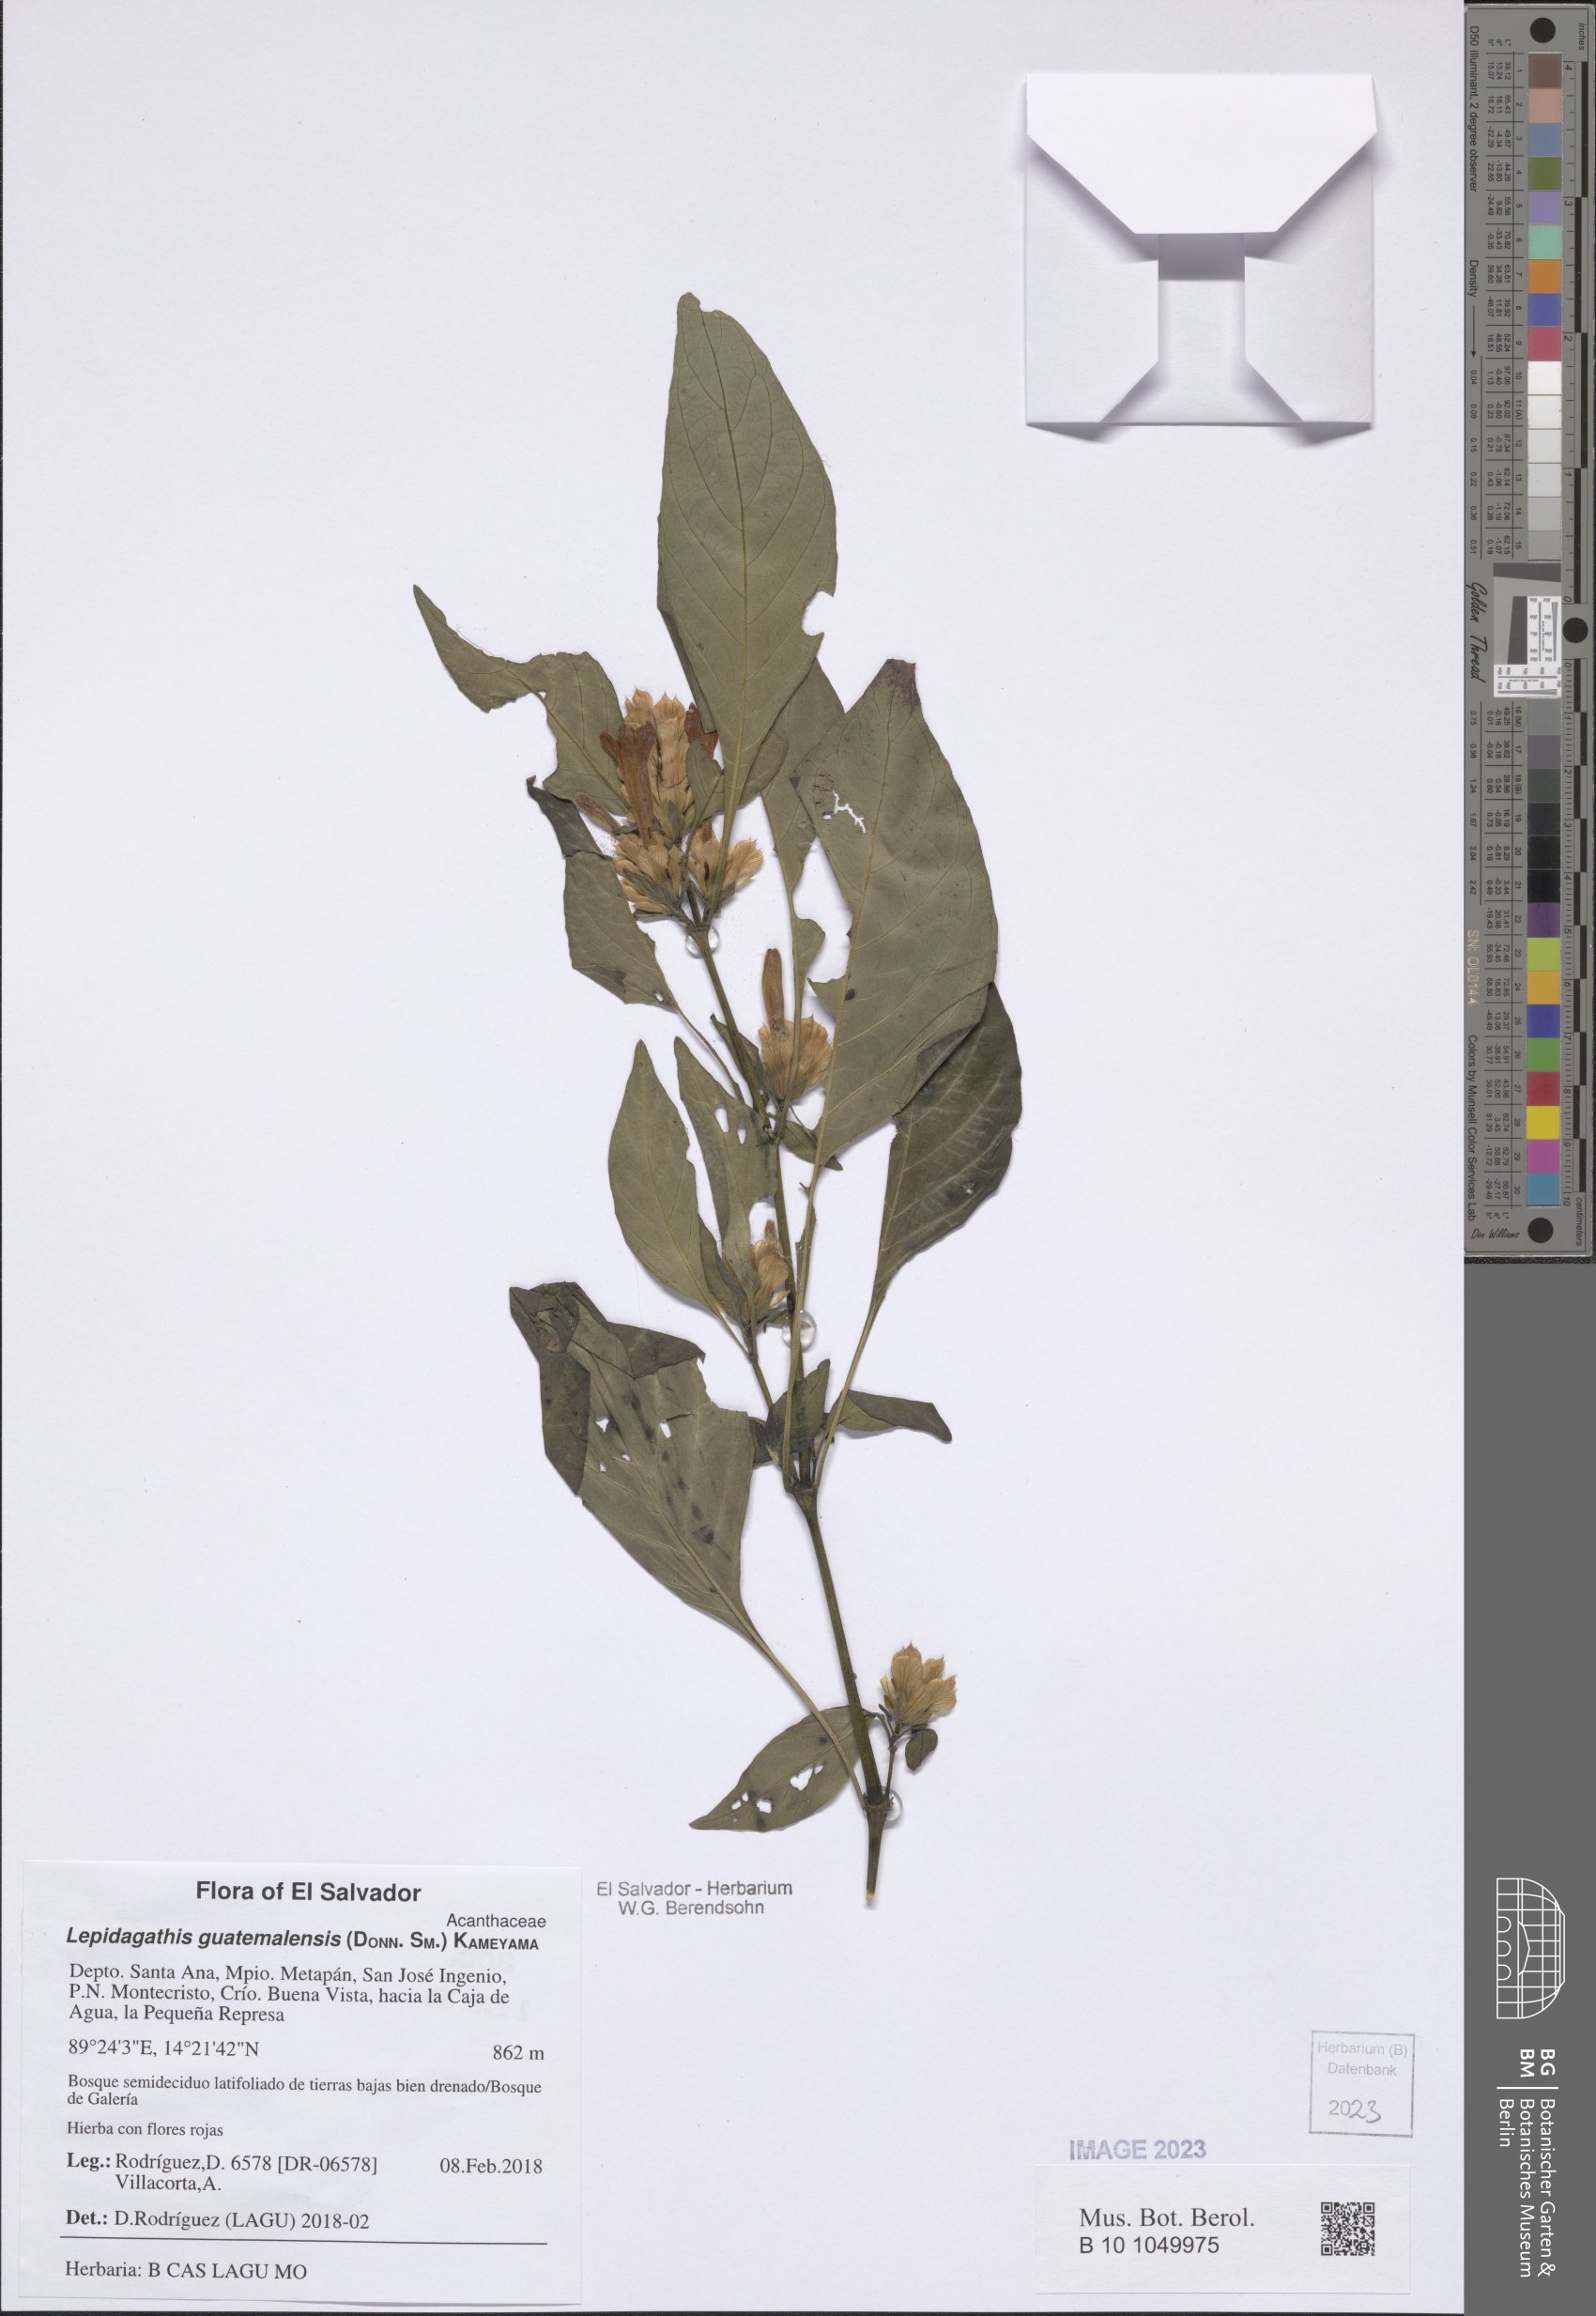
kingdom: Plantae
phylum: Tracheophyta
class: Magnoliopsida
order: Lamiales
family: Acanthaceae
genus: Lepidagathis
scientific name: Lepidagathis guatemalensis
